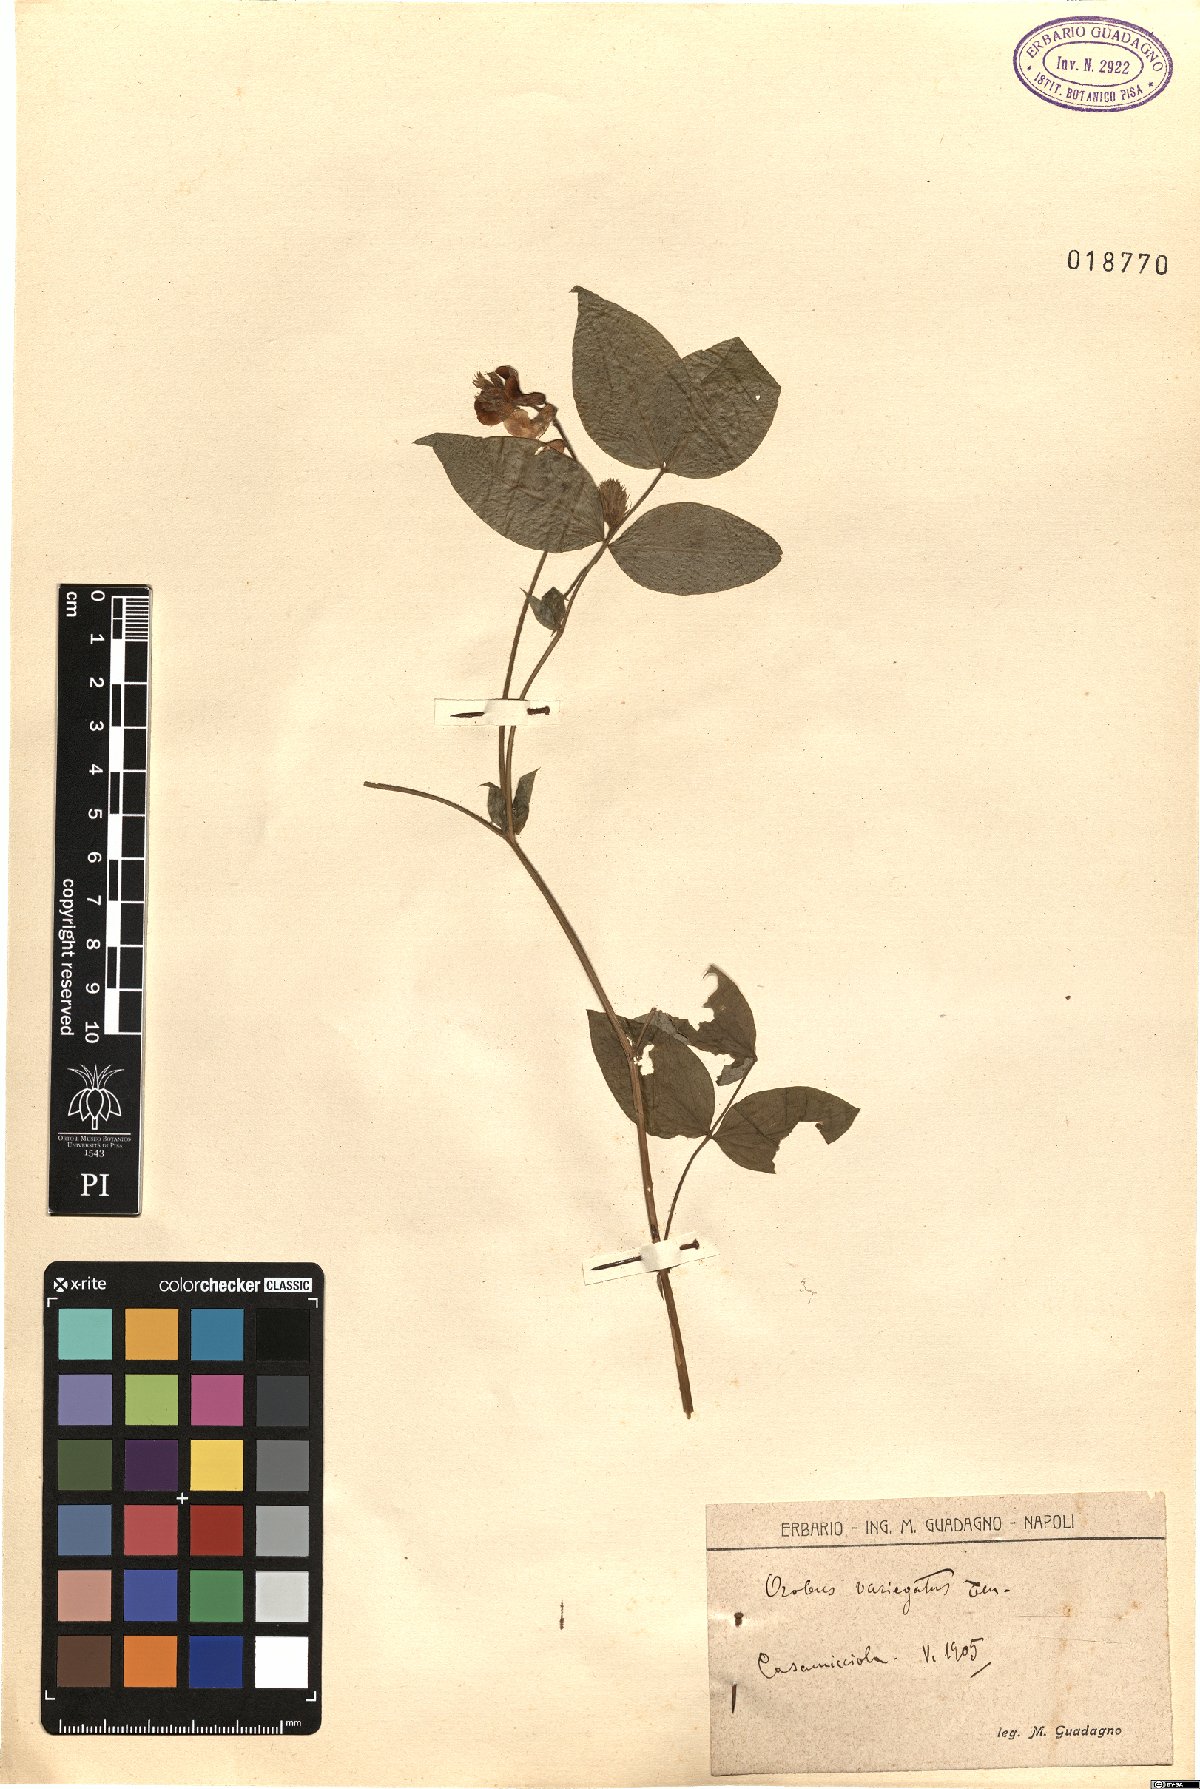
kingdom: Plantae
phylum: Tracheophyta
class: Magnoliopsida
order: Fabales
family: Fabaceae
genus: Lathyrus
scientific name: Lathyrus venetus
